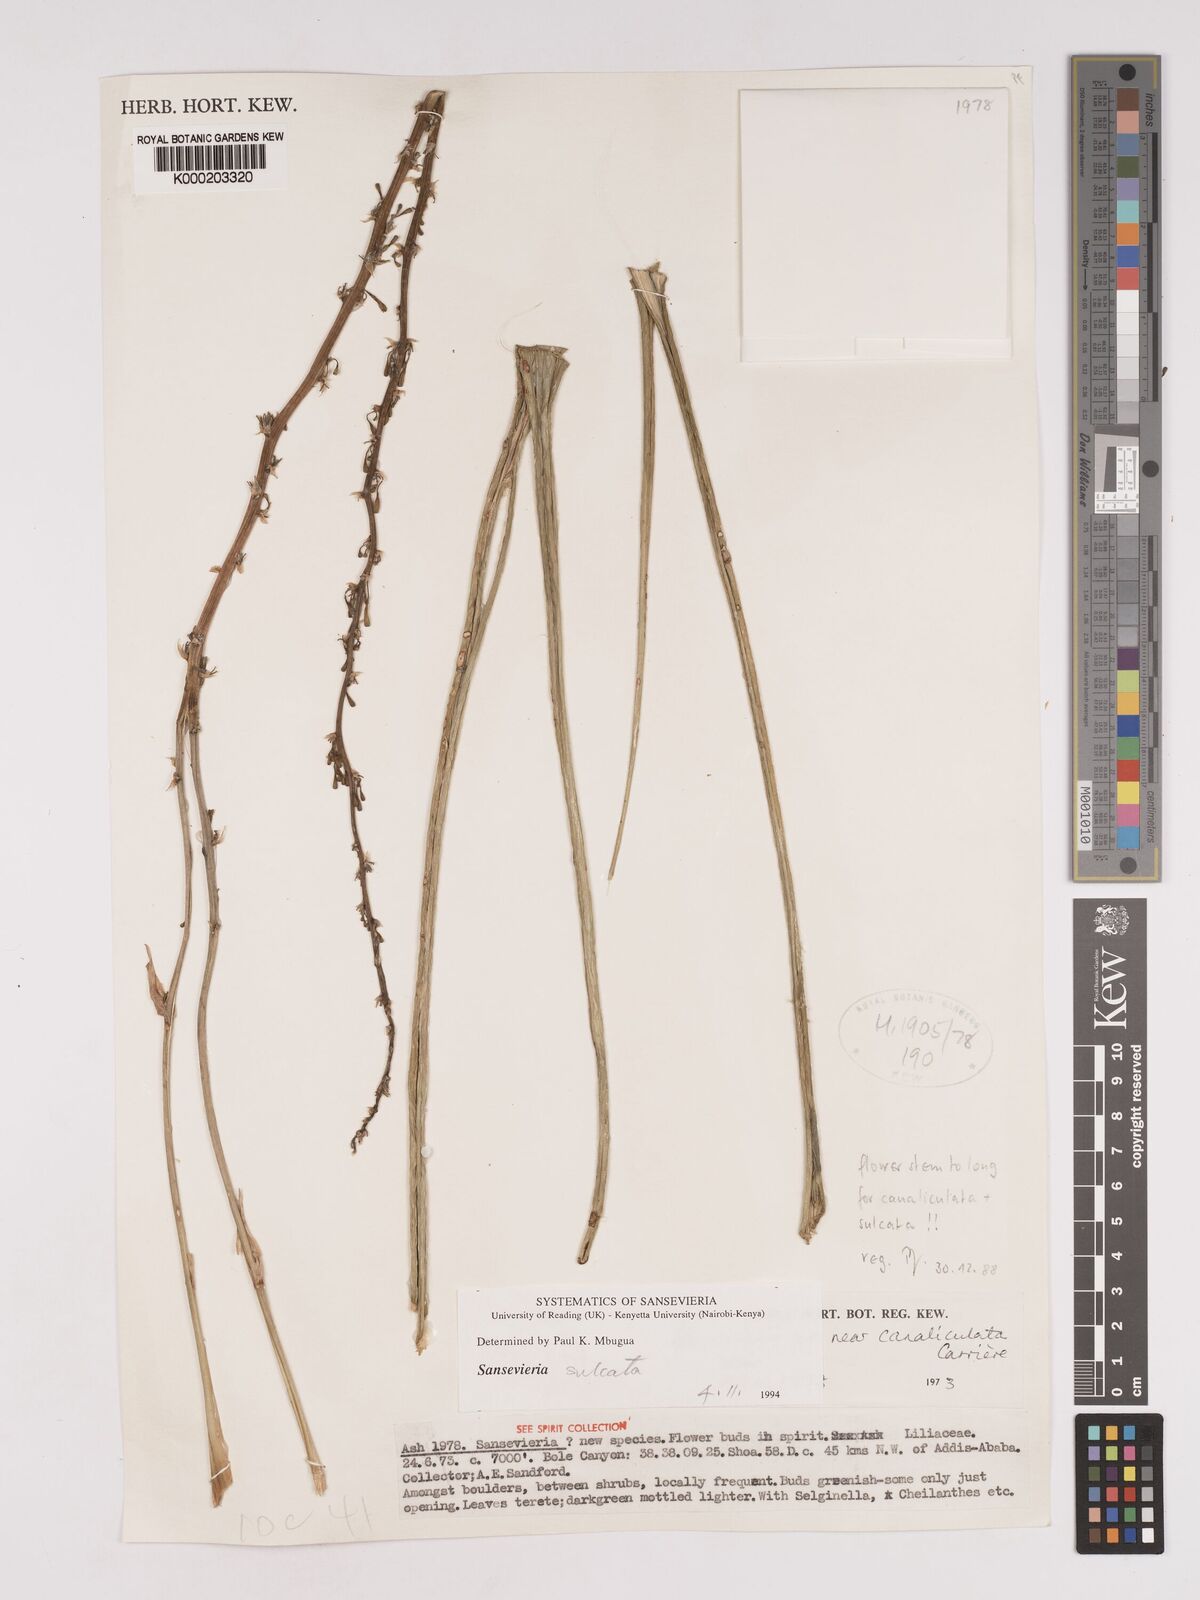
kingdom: Plantae
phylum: Tracheophyta
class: Liliopsida
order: Asparagales
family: Asparagaceae
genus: Dracaena
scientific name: Dracaena
